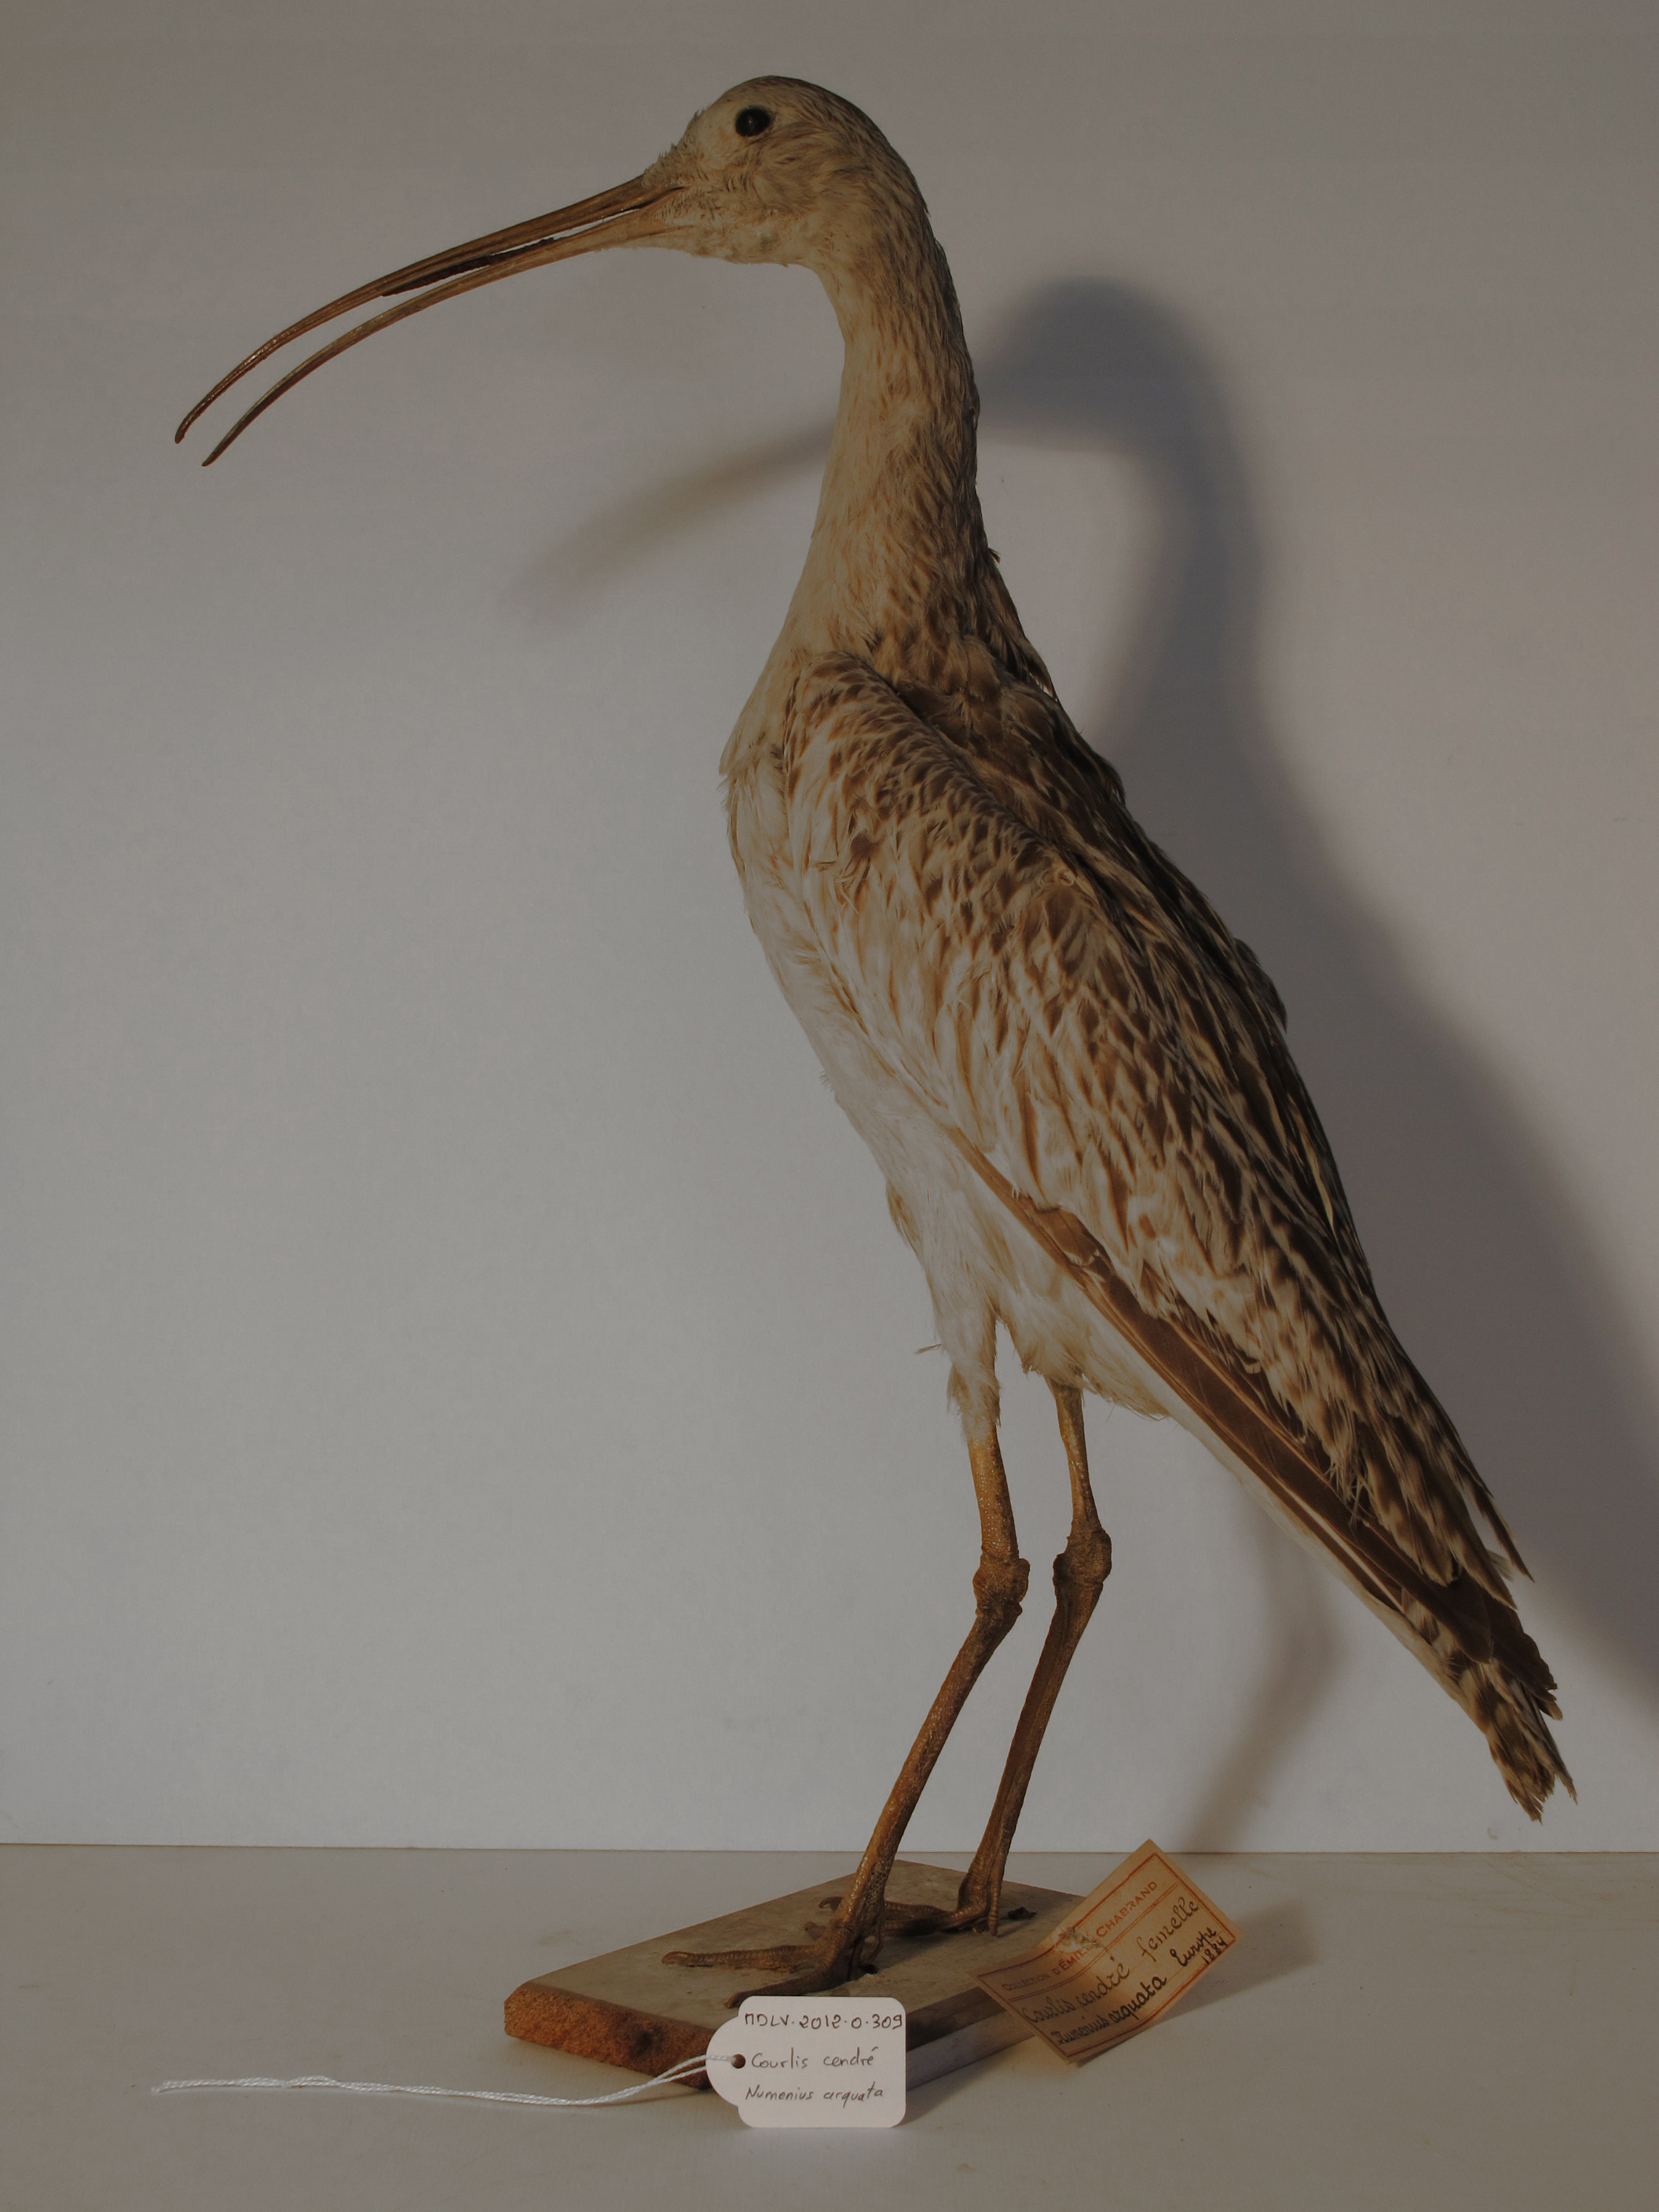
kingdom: Animalia
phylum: Chordata
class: Aves
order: Charadriiformes
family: Scolopacidae
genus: Numenius
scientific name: Numenius arquata
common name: Eurasian Curlew
